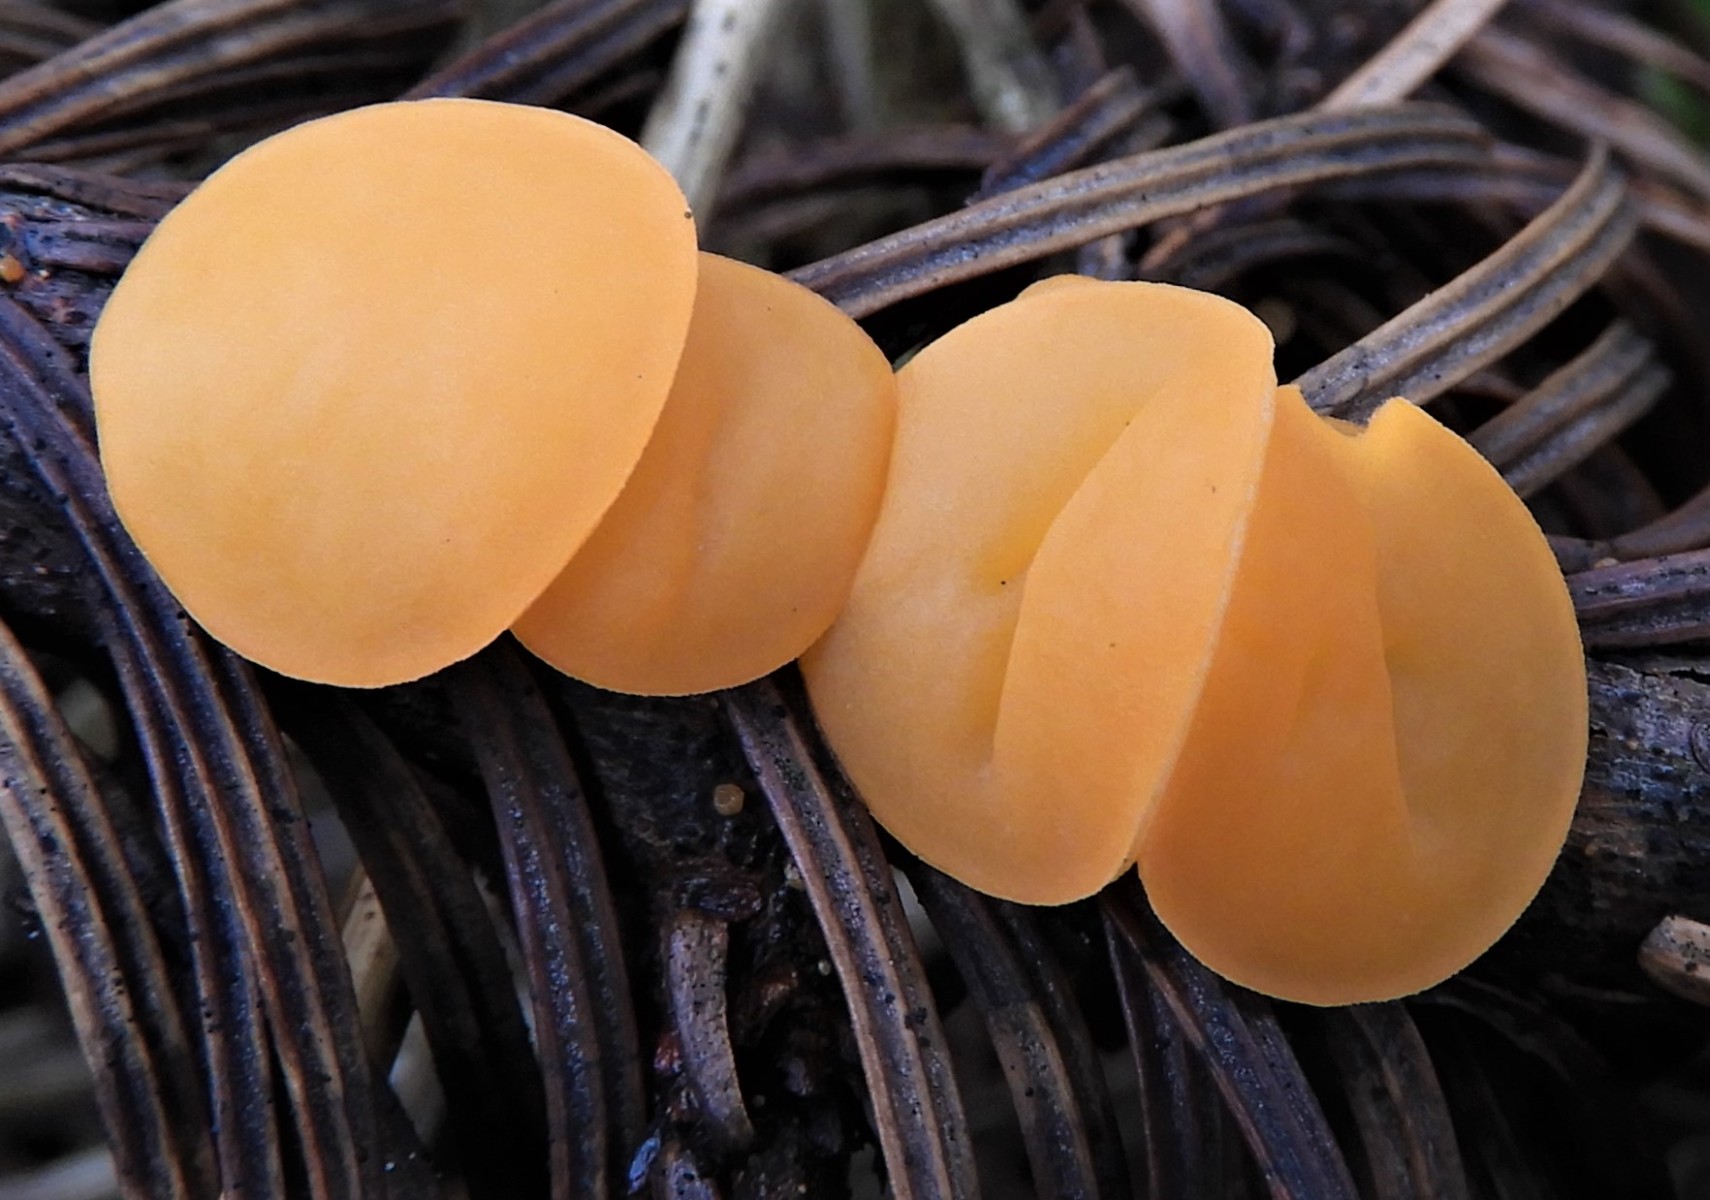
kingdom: Fungi
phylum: Ascomycota
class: Pezizomycetes
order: Pezizales
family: Sarcoscyphaceae
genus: Pithya
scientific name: Pithya vulgaris
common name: stor dukatbæger
